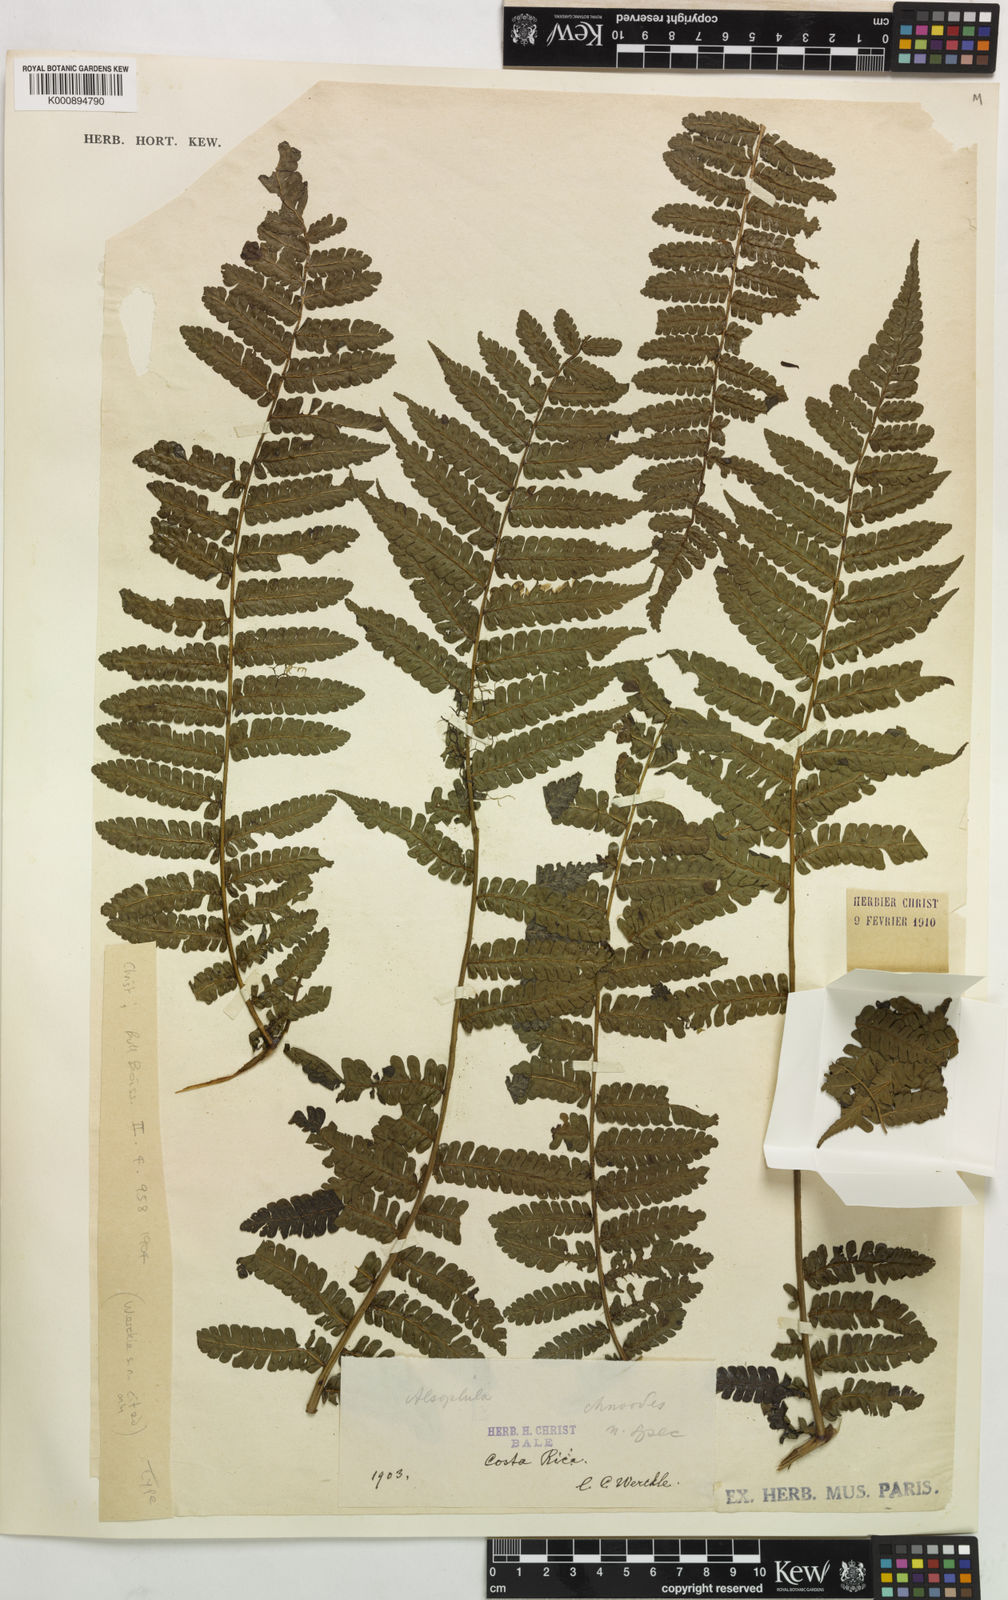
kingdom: Plantae
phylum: Tracheophyta
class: Polypodiopsida
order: Cyatheales
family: Cyatheaceae
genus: Cyathea
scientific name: Cyathea schiedeana
